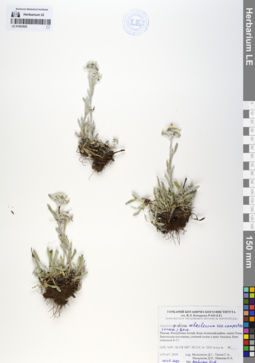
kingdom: Plantae
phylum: Tracheophyta
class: Magnoliopsida
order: Asterales
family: Asteraceae
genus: Leontopodium
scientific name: Leontopodium campestre
